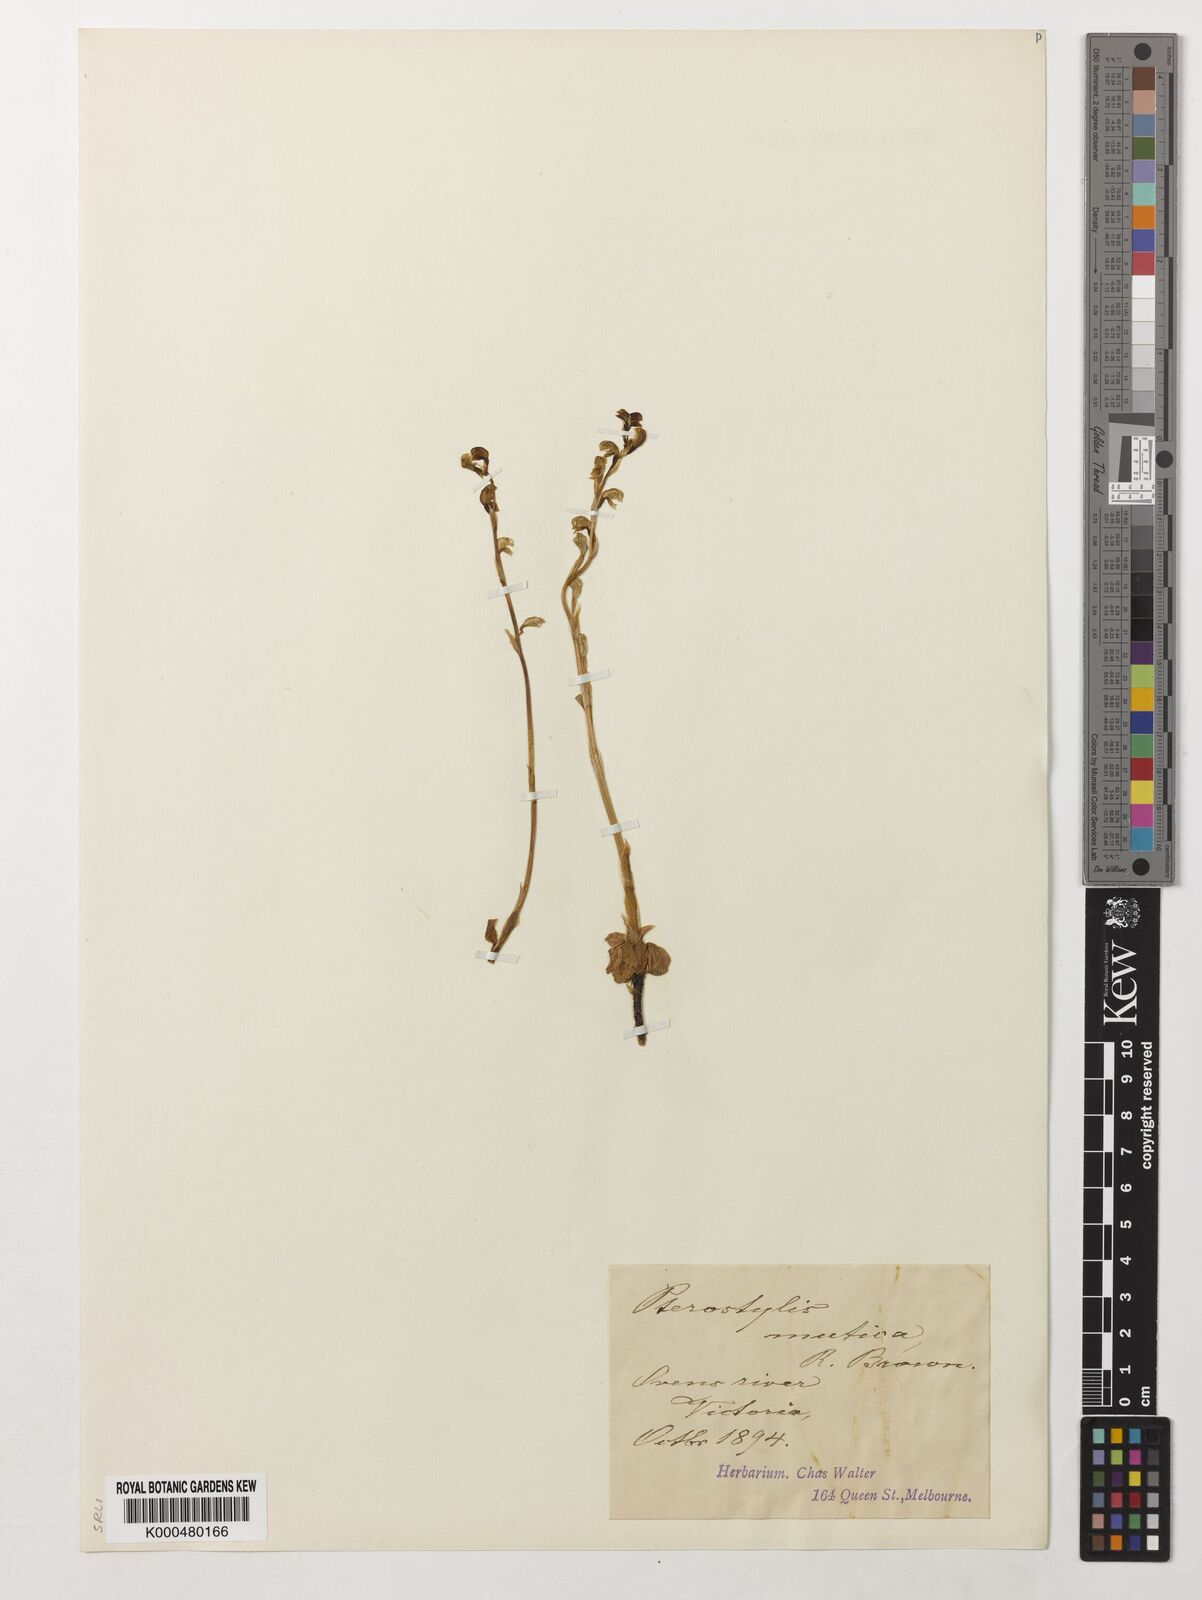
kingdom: Plantae
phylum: Tracheophyta
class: Liliopsida
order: Asparagales
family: Orchidaceae
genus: Pterostylis
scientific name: Pterostylis mutica
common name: Midget greenhood
